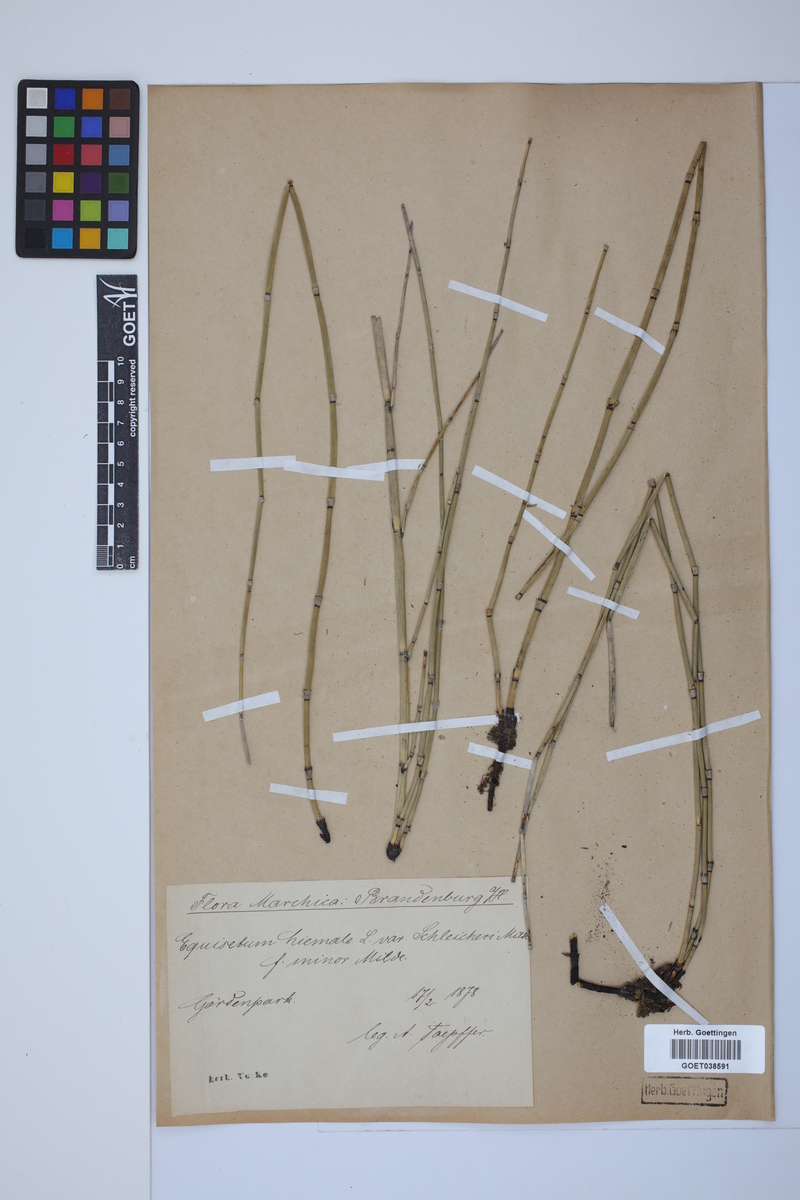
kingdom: Plantae
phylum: Tracheophyta
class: Polypodiopsida
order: Equisetales
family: Equisetaceae
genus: Equisetum
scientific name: Equisetum hyemale
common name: Rough horsetail
